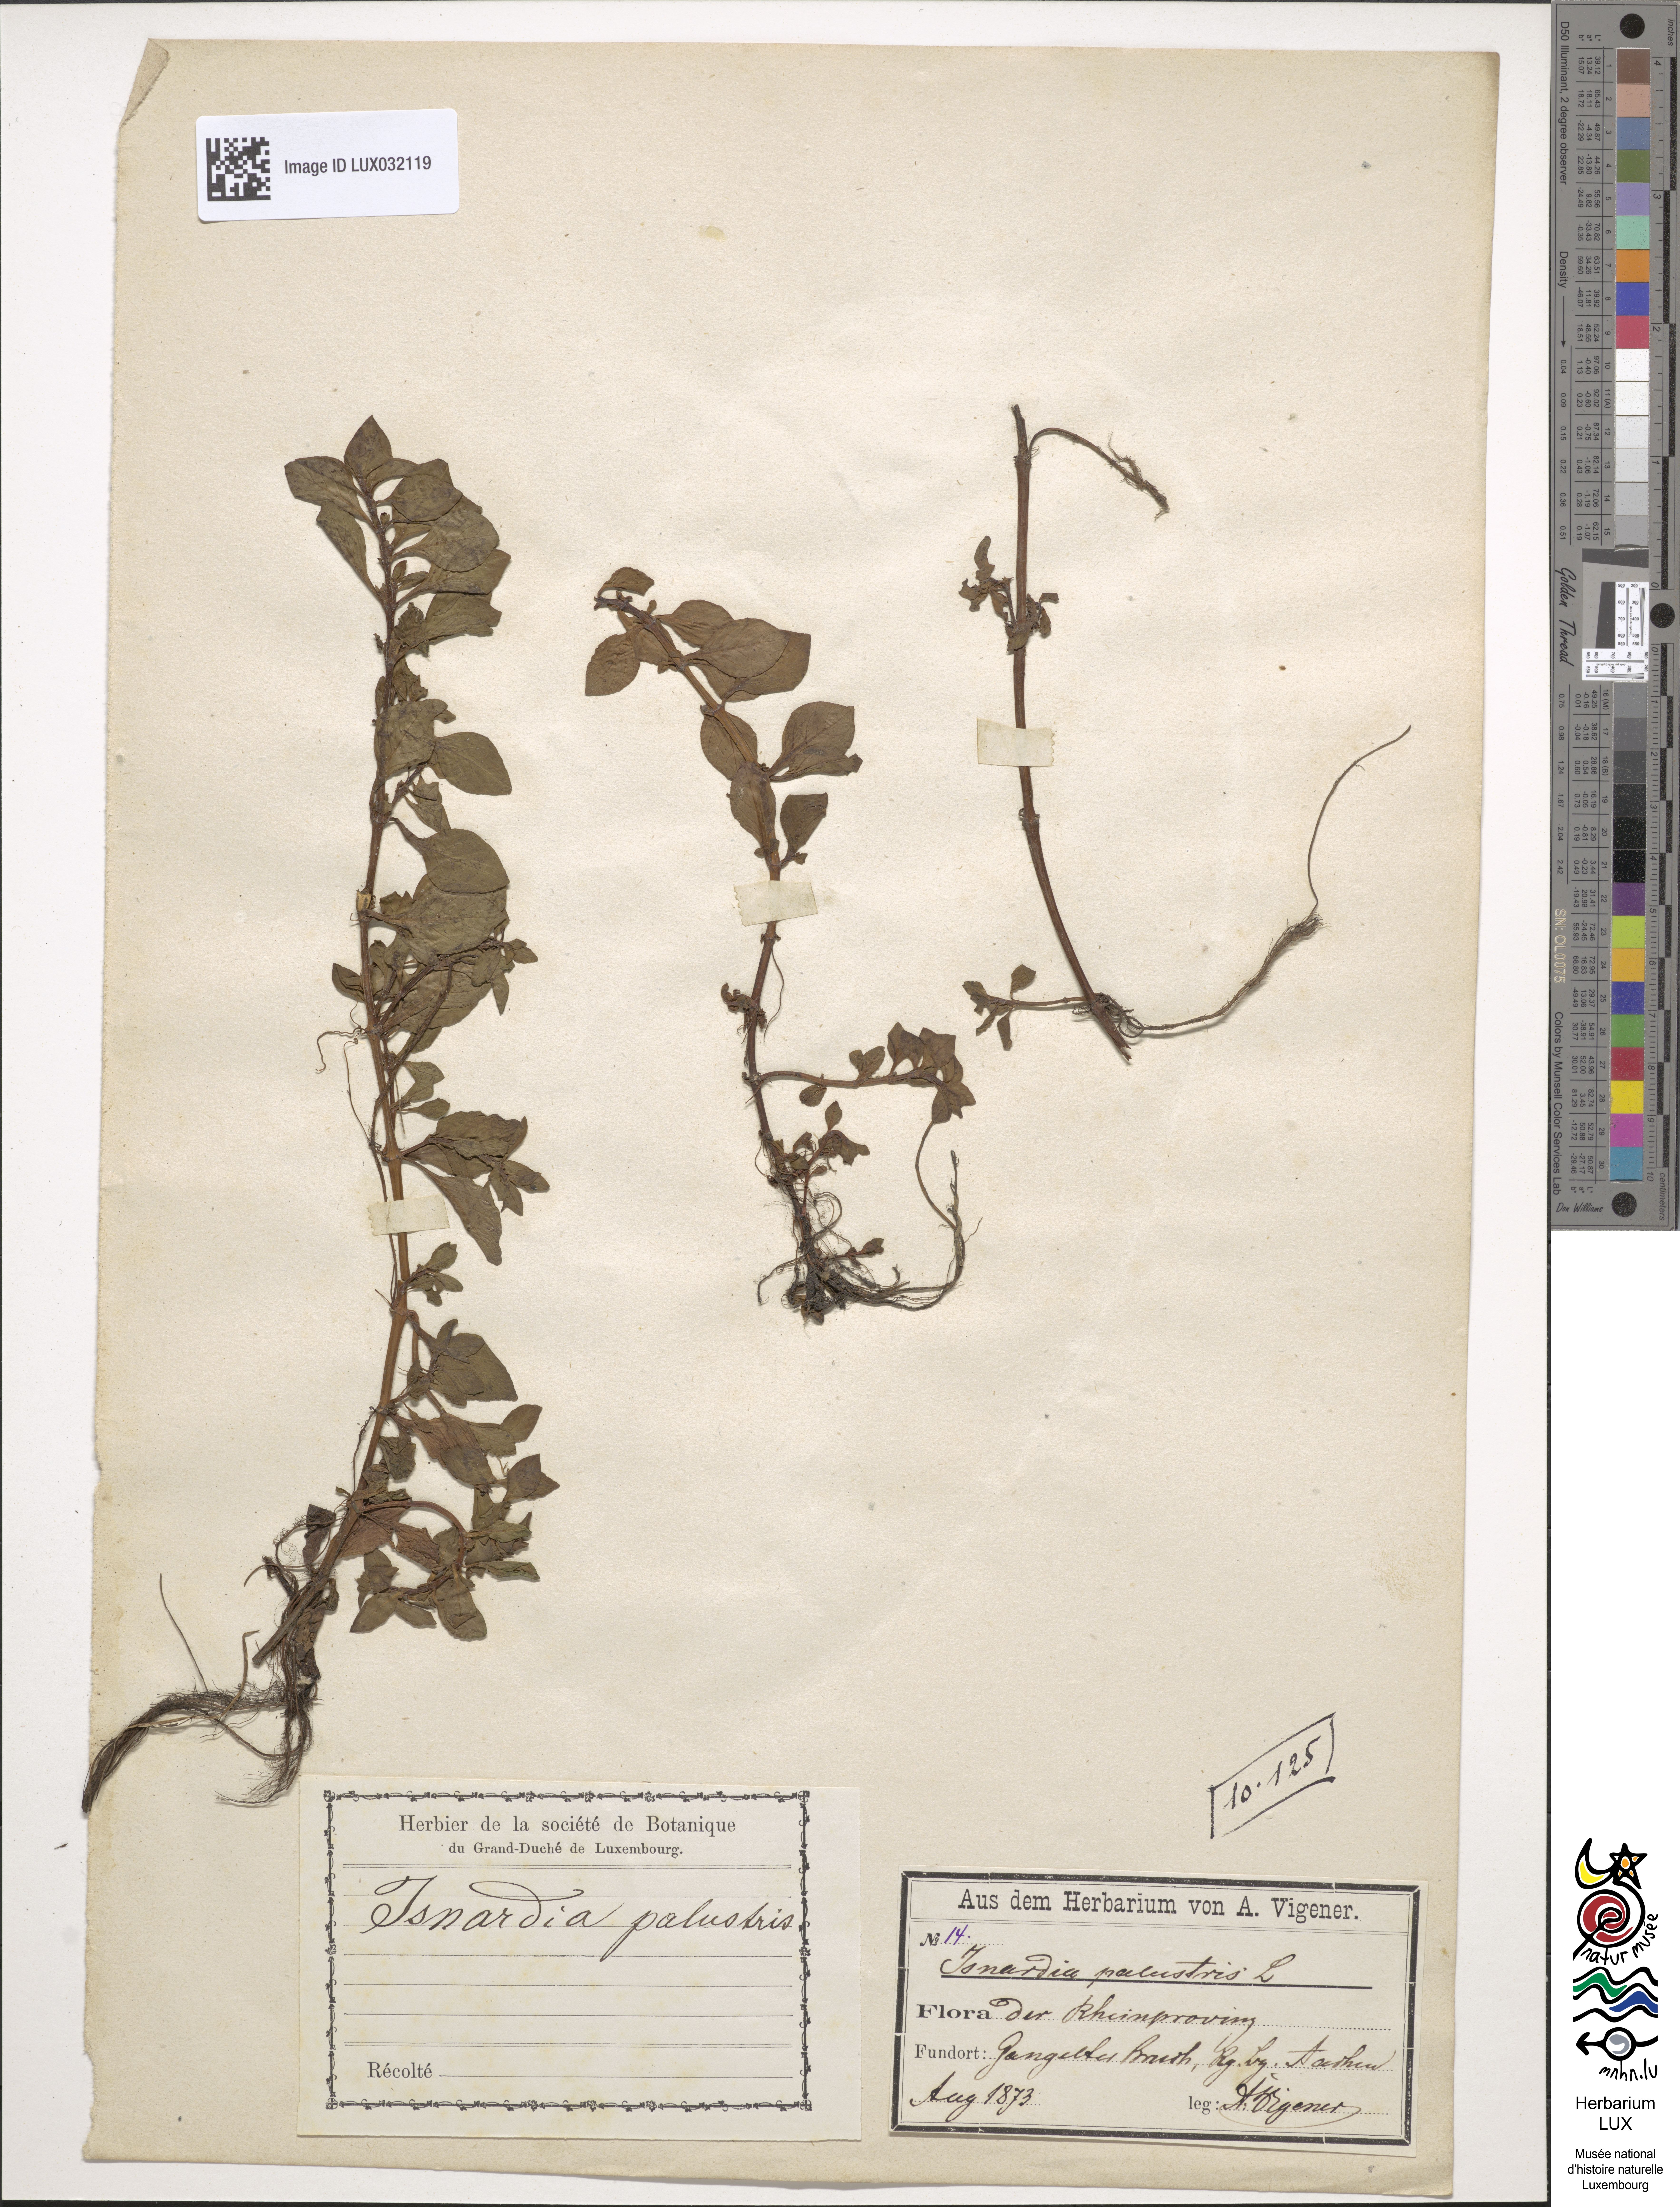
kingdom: Plantae
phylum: Tracheophyta
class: Magnoliopsida
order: Myrtales
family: Onagraceae
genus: Ludwigia
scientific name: Ludwigia palustris
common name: Hampshire-purslane
